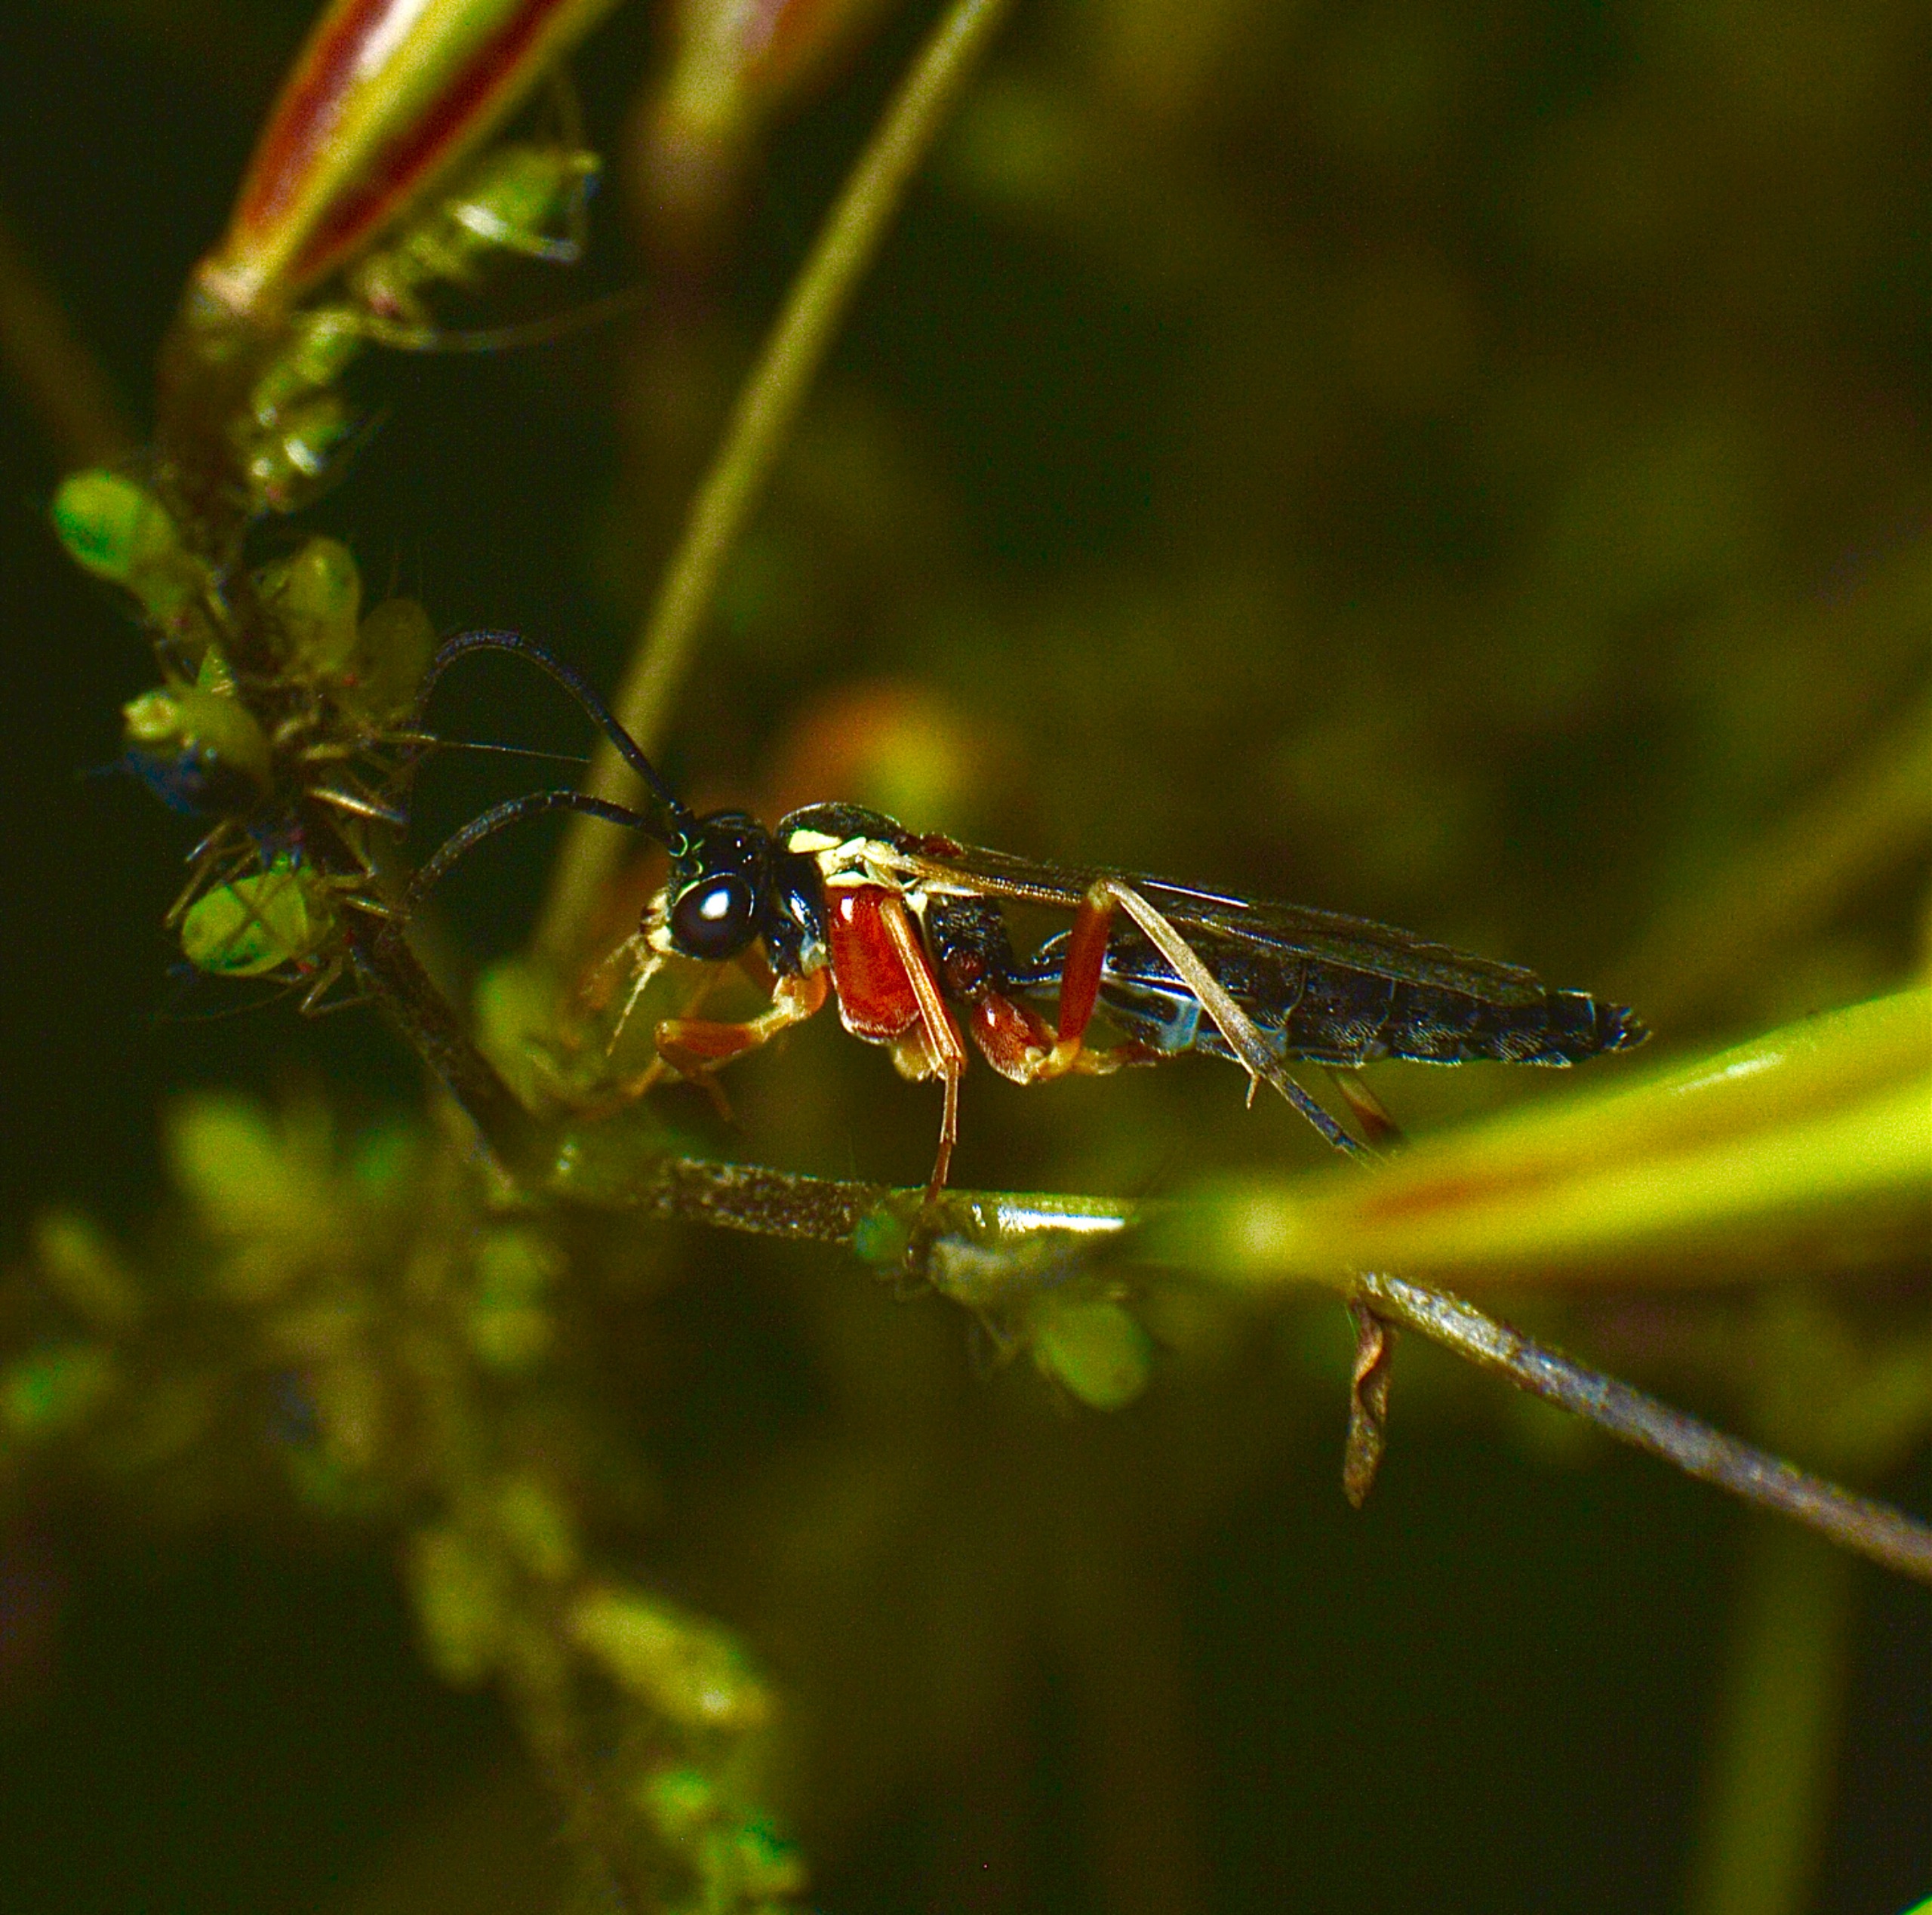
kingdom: Animalia
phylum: Arthropoda
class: Insecta
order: Hymenoptera
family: Ichneumonidae
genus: Diplazon
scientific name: Diplazon pectoratorius
